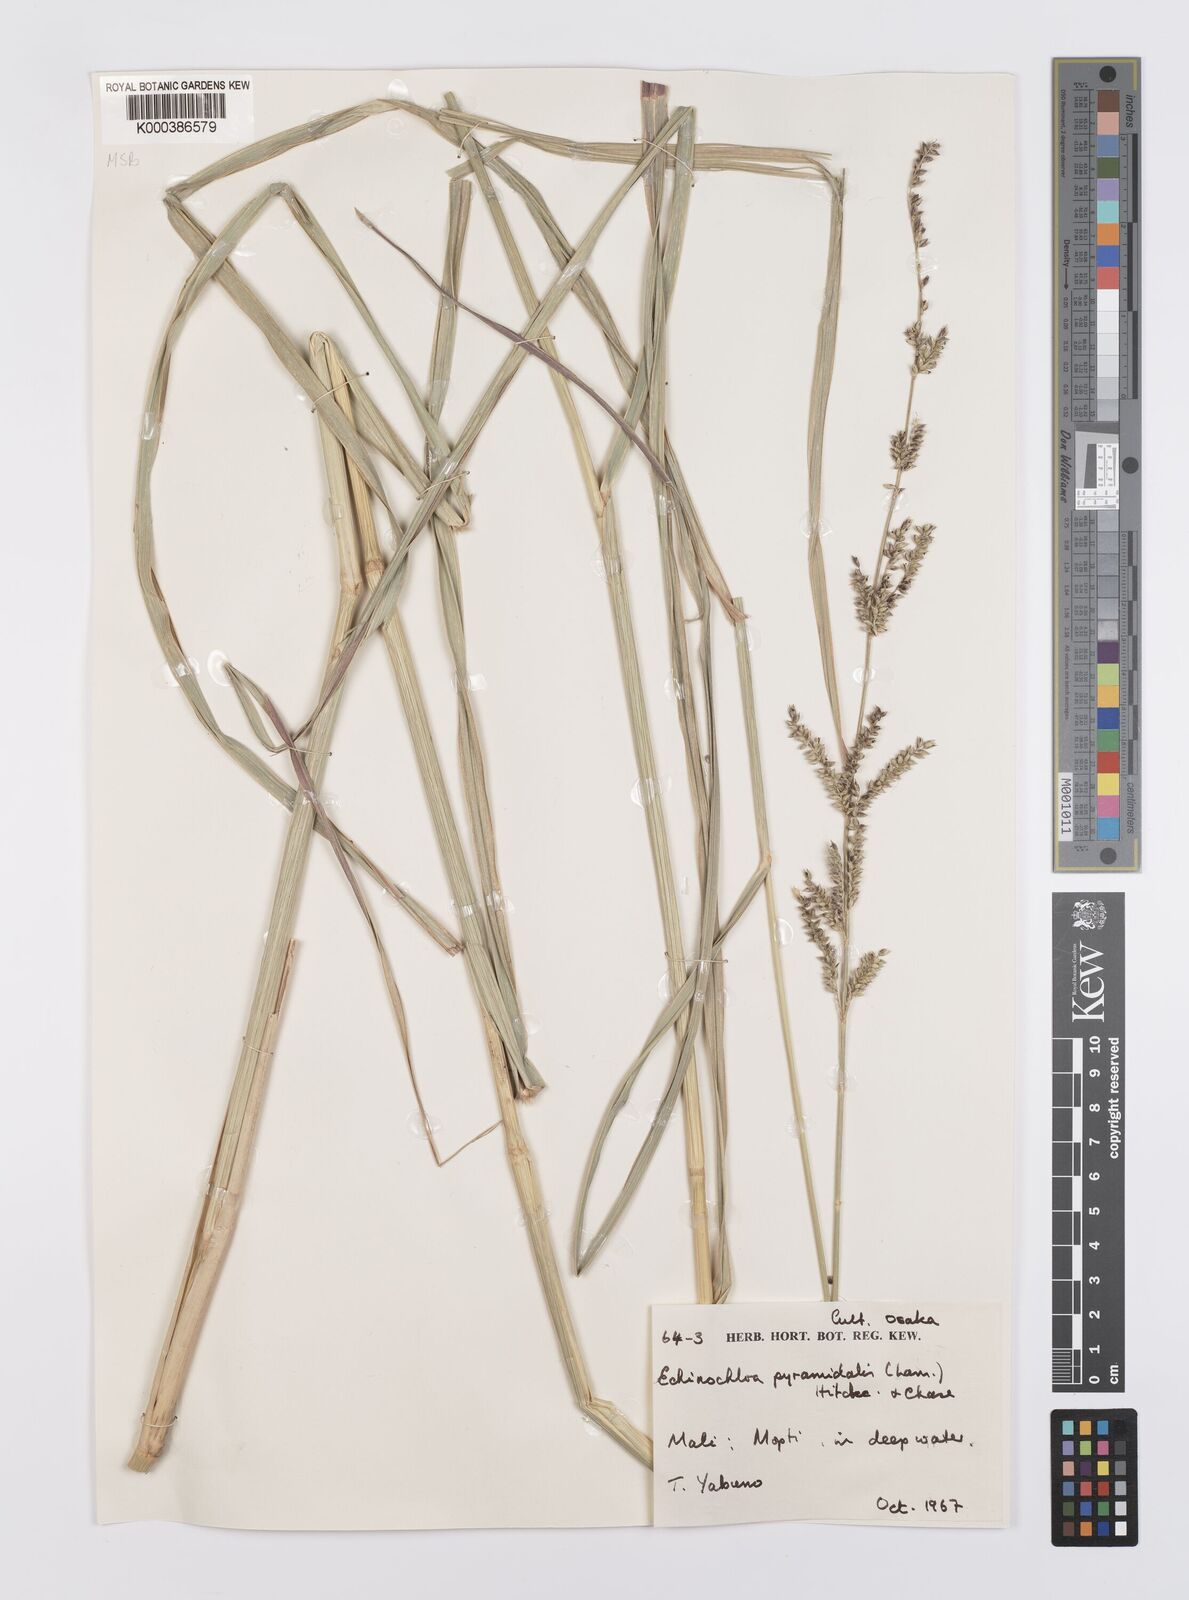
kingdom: Plantae
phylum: Tracheophyta
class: Liliopsida
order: Poales
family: Poaceae
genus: Echinochloa
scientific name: Echinochloa pyramidalis
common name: Antelope grass
